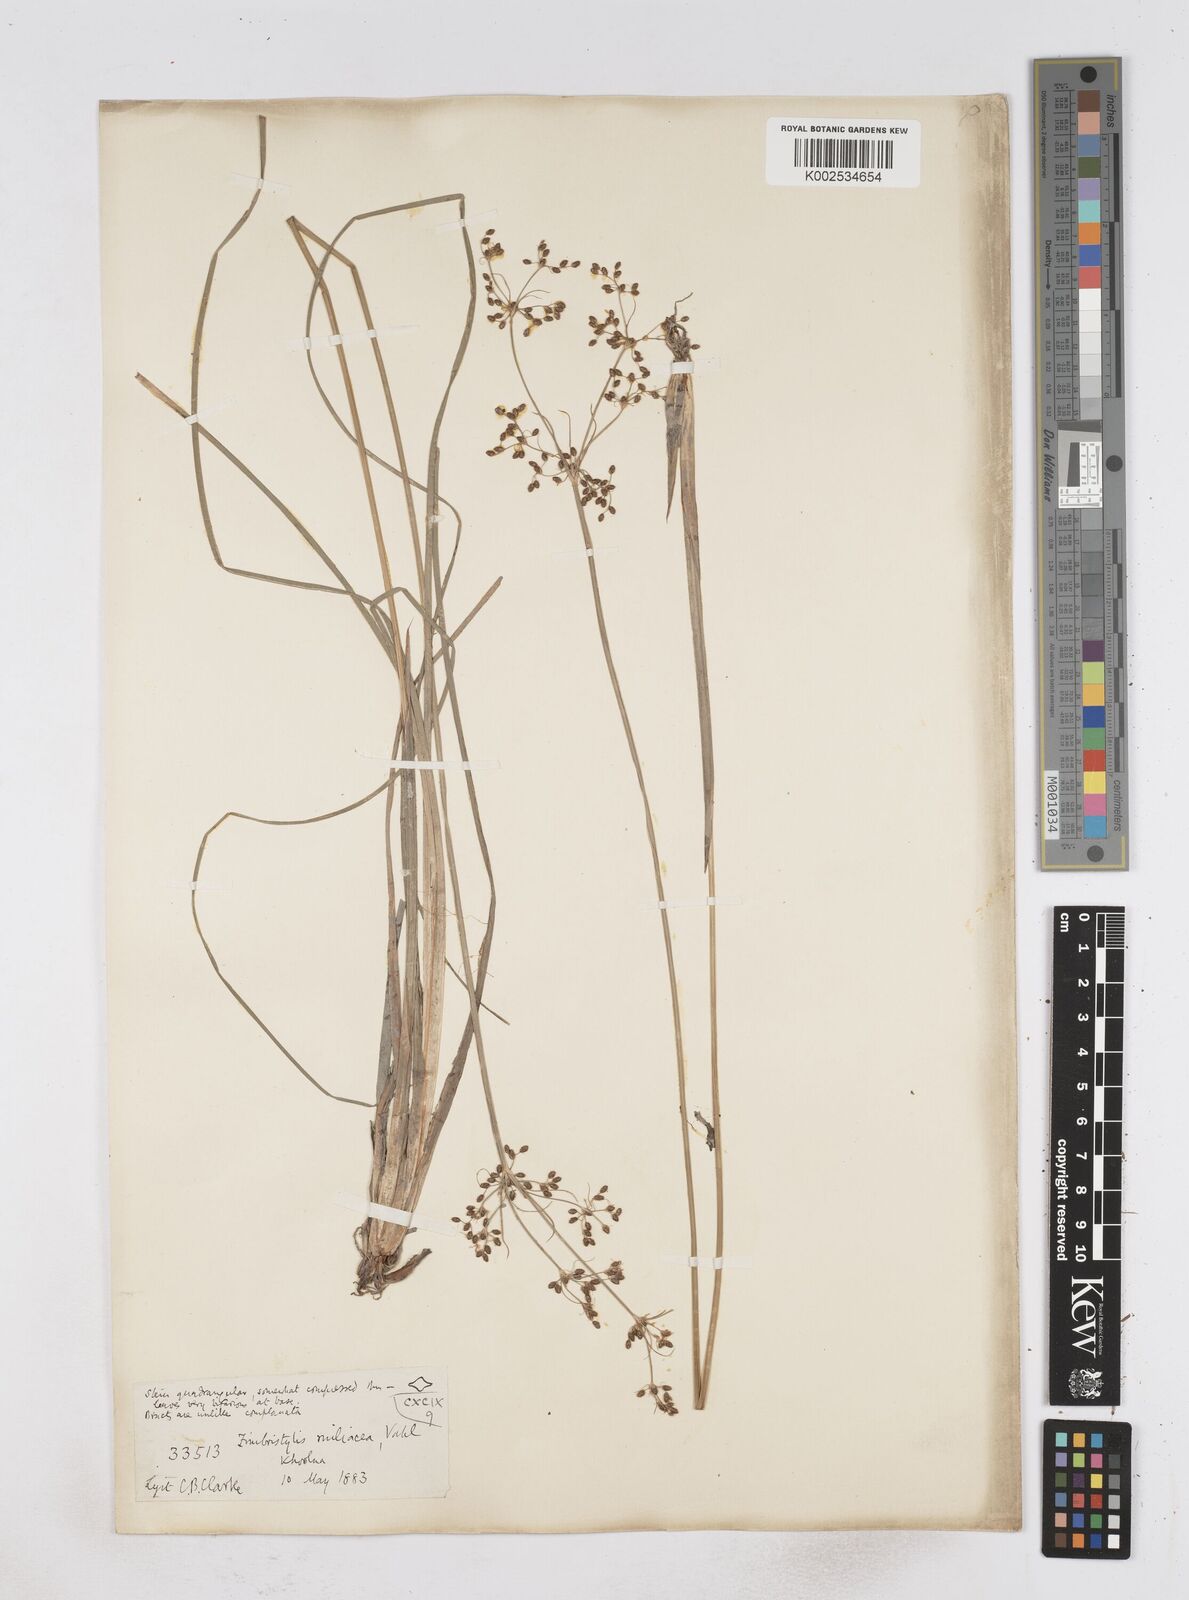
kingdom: Plantae
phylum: Tracheophyta
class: Liliopsida
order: Poales
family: Cyperaceae
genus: Fimbristylis
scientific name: Fimbristylis littoralis
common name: Fimbry
